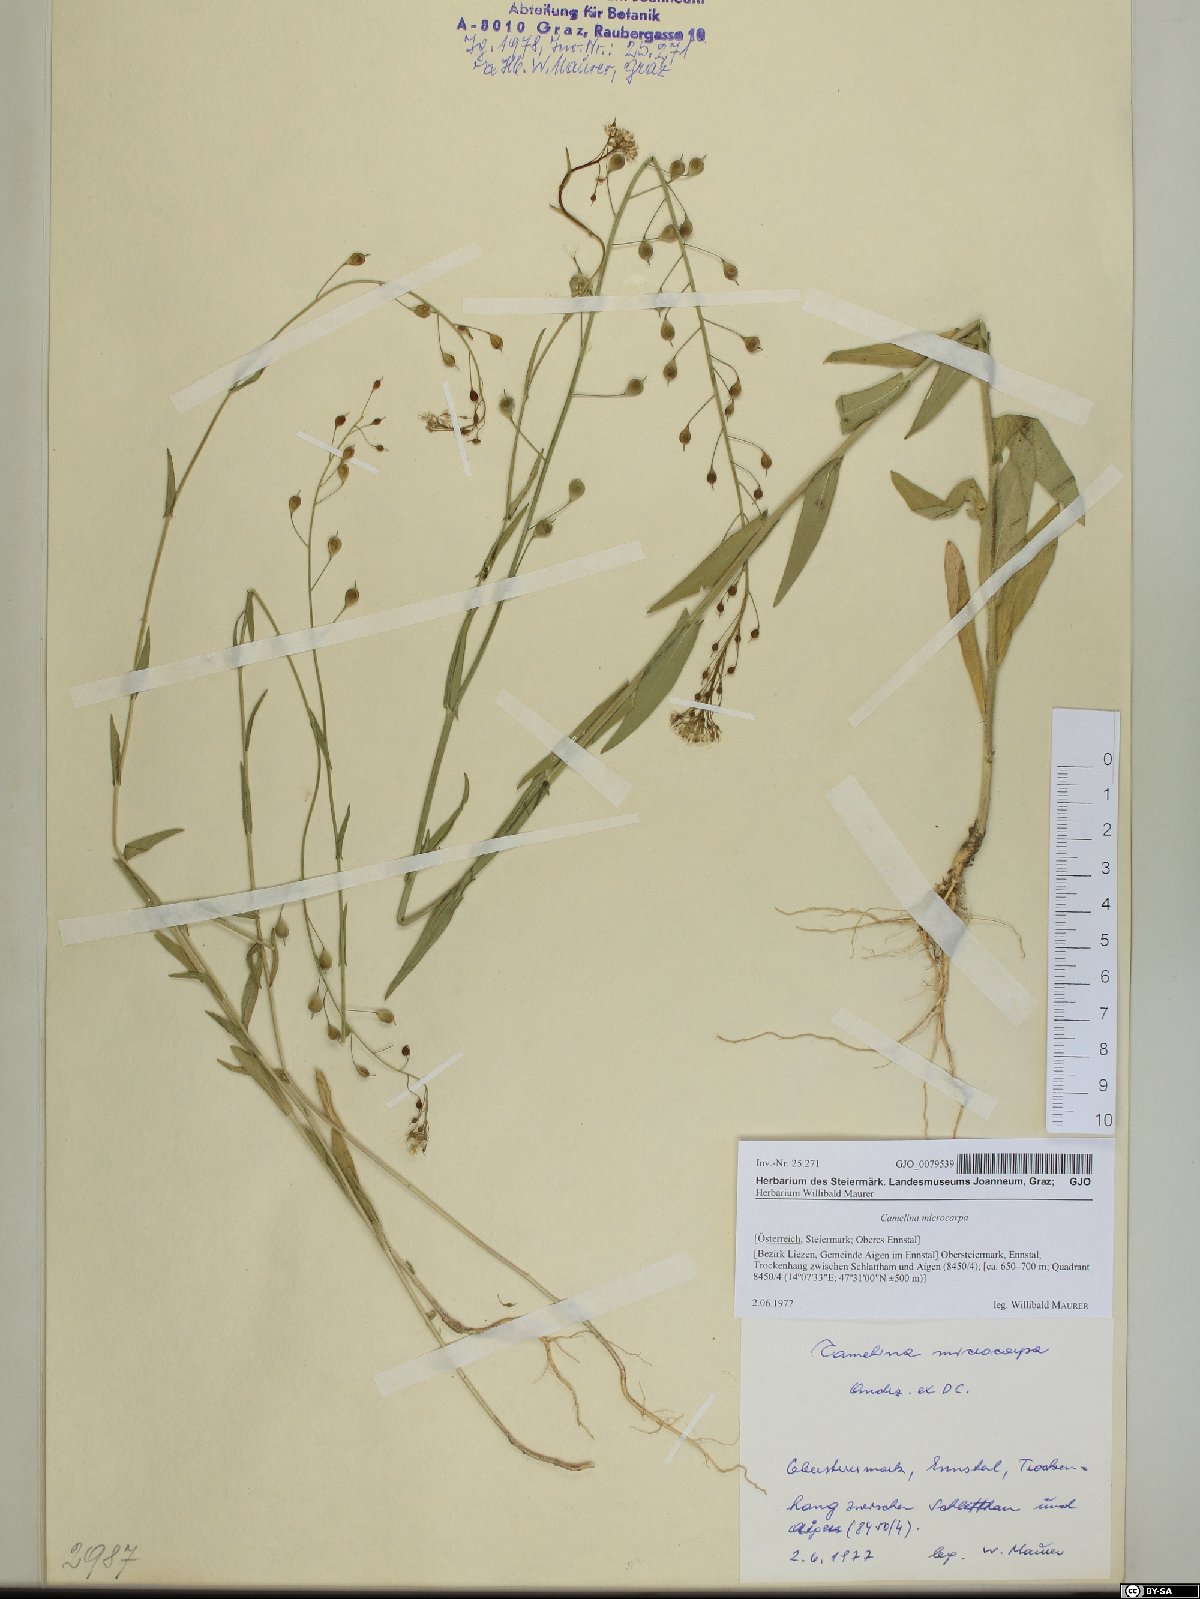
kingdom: Plantae
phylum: Tracheophyta
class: Magnoliopsida
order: Brassicales
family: Brassicaceae
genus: Camelina
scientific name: Camelina microcarpa
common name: Lesser gold-of-pleasure
